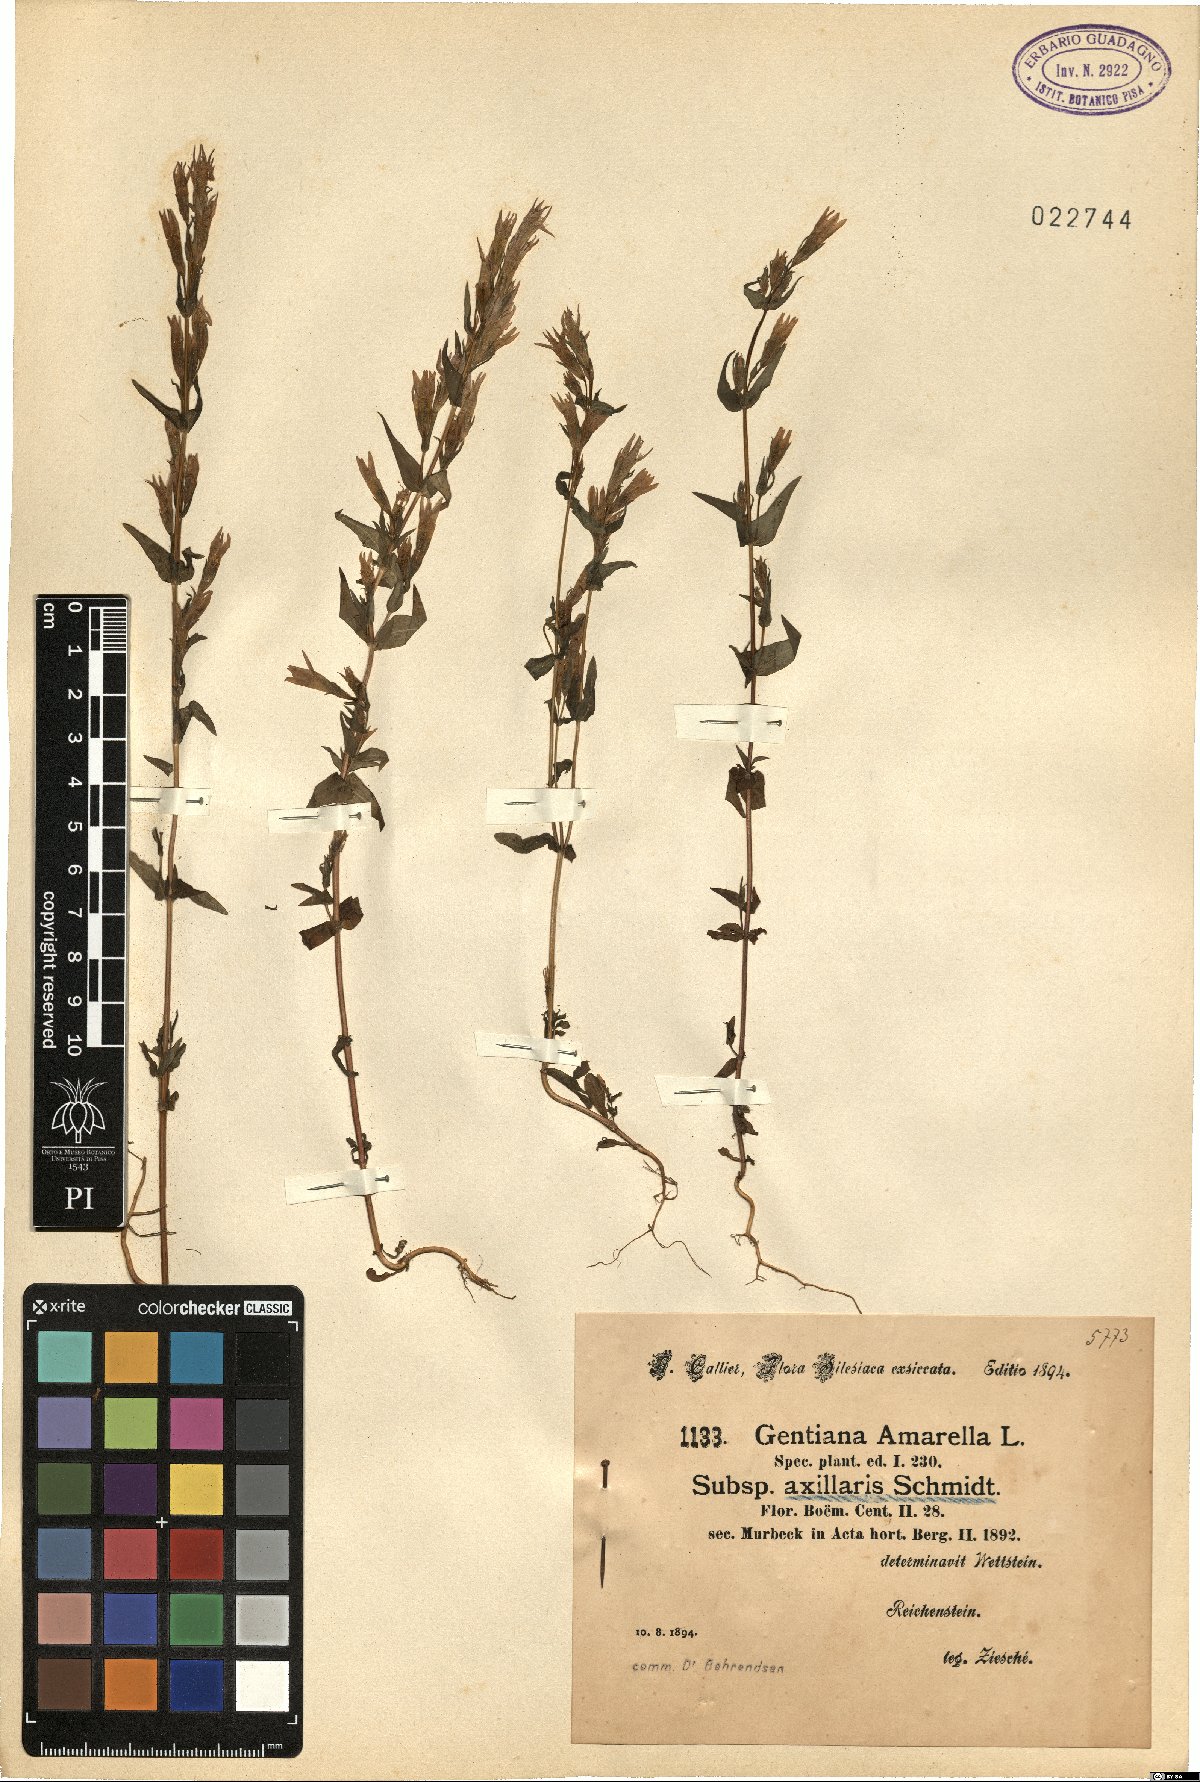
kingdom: Plantae
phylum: Tracheophyta
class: Magnoliopsida
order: Gentianales
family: Gentianaceae
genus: Gentianella
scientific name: Gentianella amarella
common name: Autumn gentian
